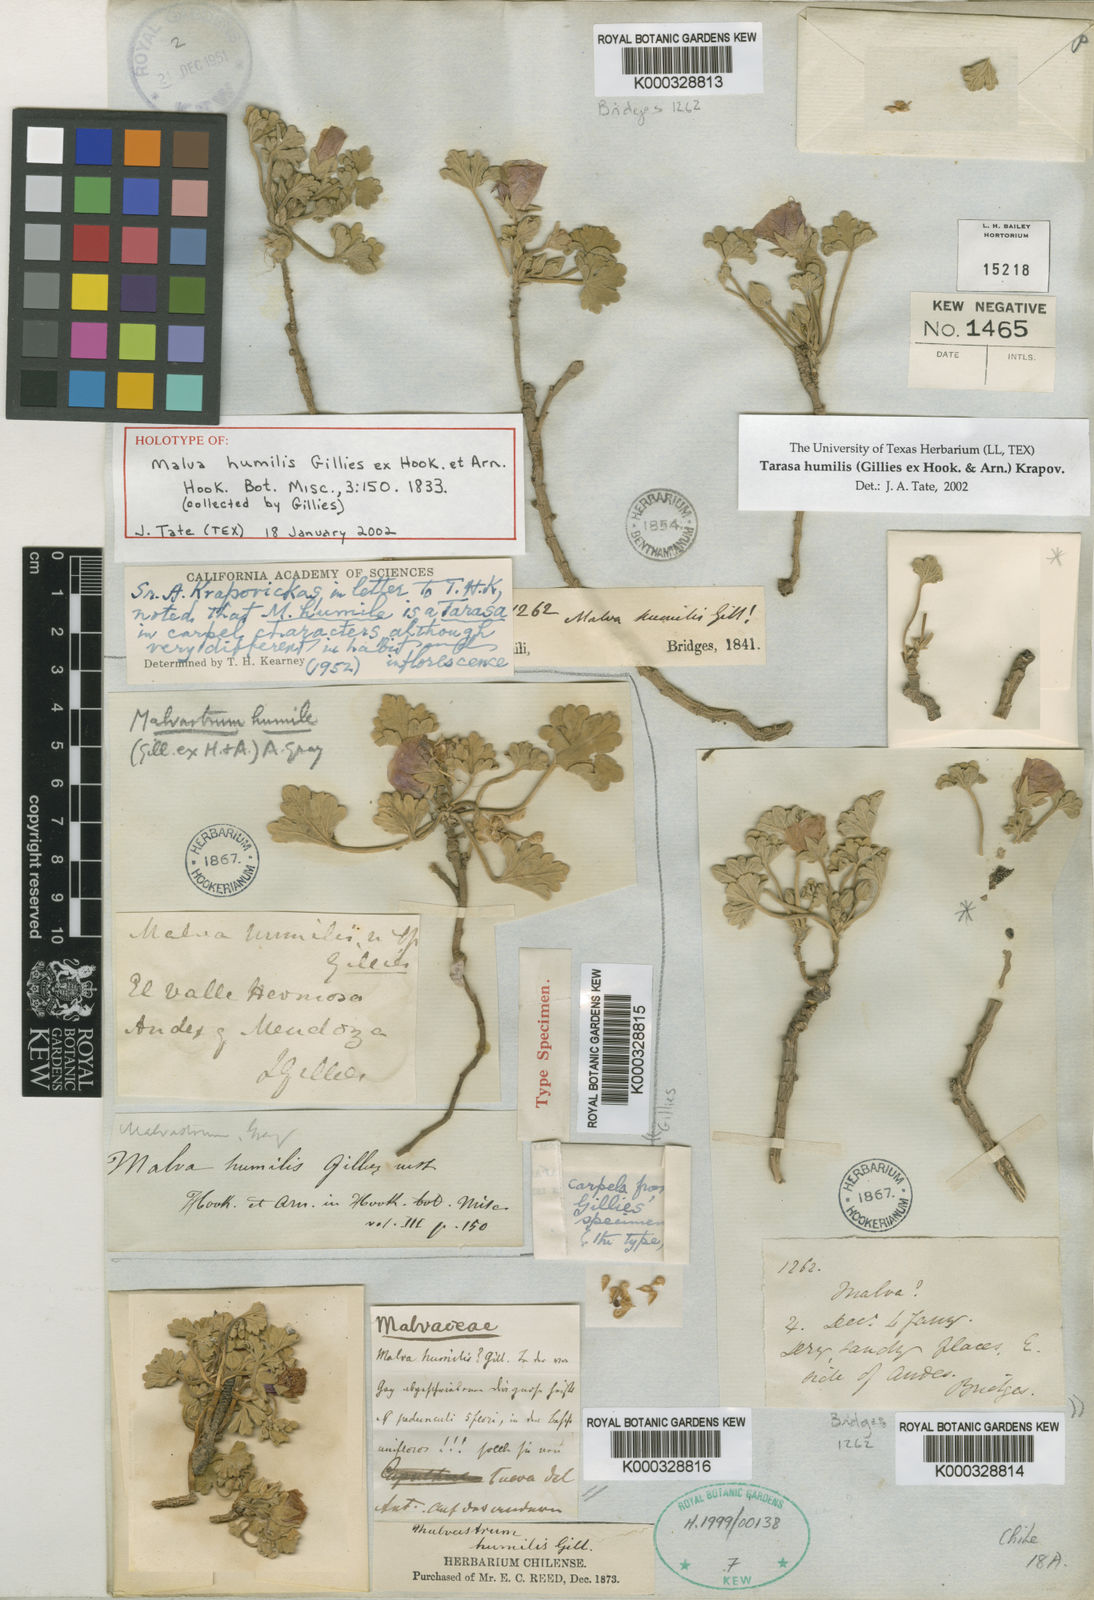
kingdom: Plantae
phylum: Tracheophyta
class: Magnoliopsida
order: Malvales
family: Malvaceae
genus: Tarasa
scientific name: Tarasa humilis
